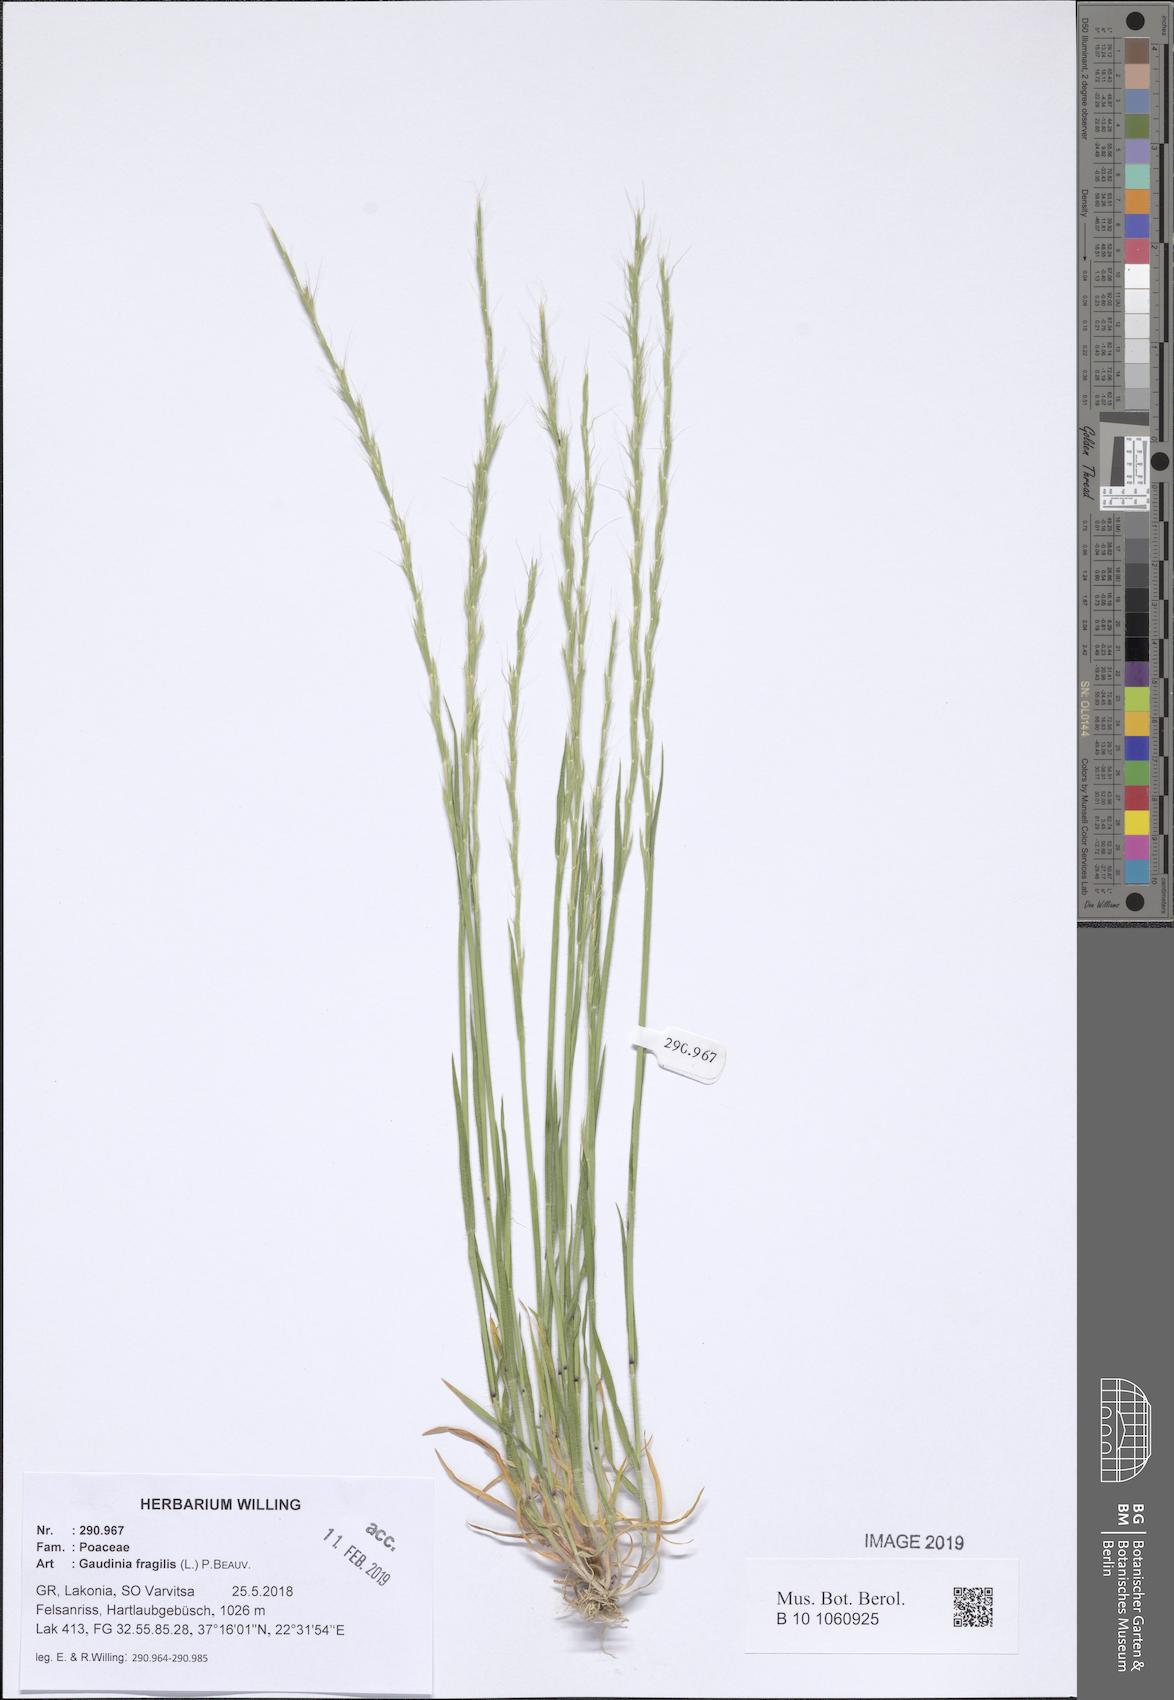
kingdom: Plantae
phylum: Tracheophyta
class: Liliopsida
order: Poales
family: Poaceae
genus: Gaudinia
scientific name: Gaudinia fragilis
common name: French oat-grass
